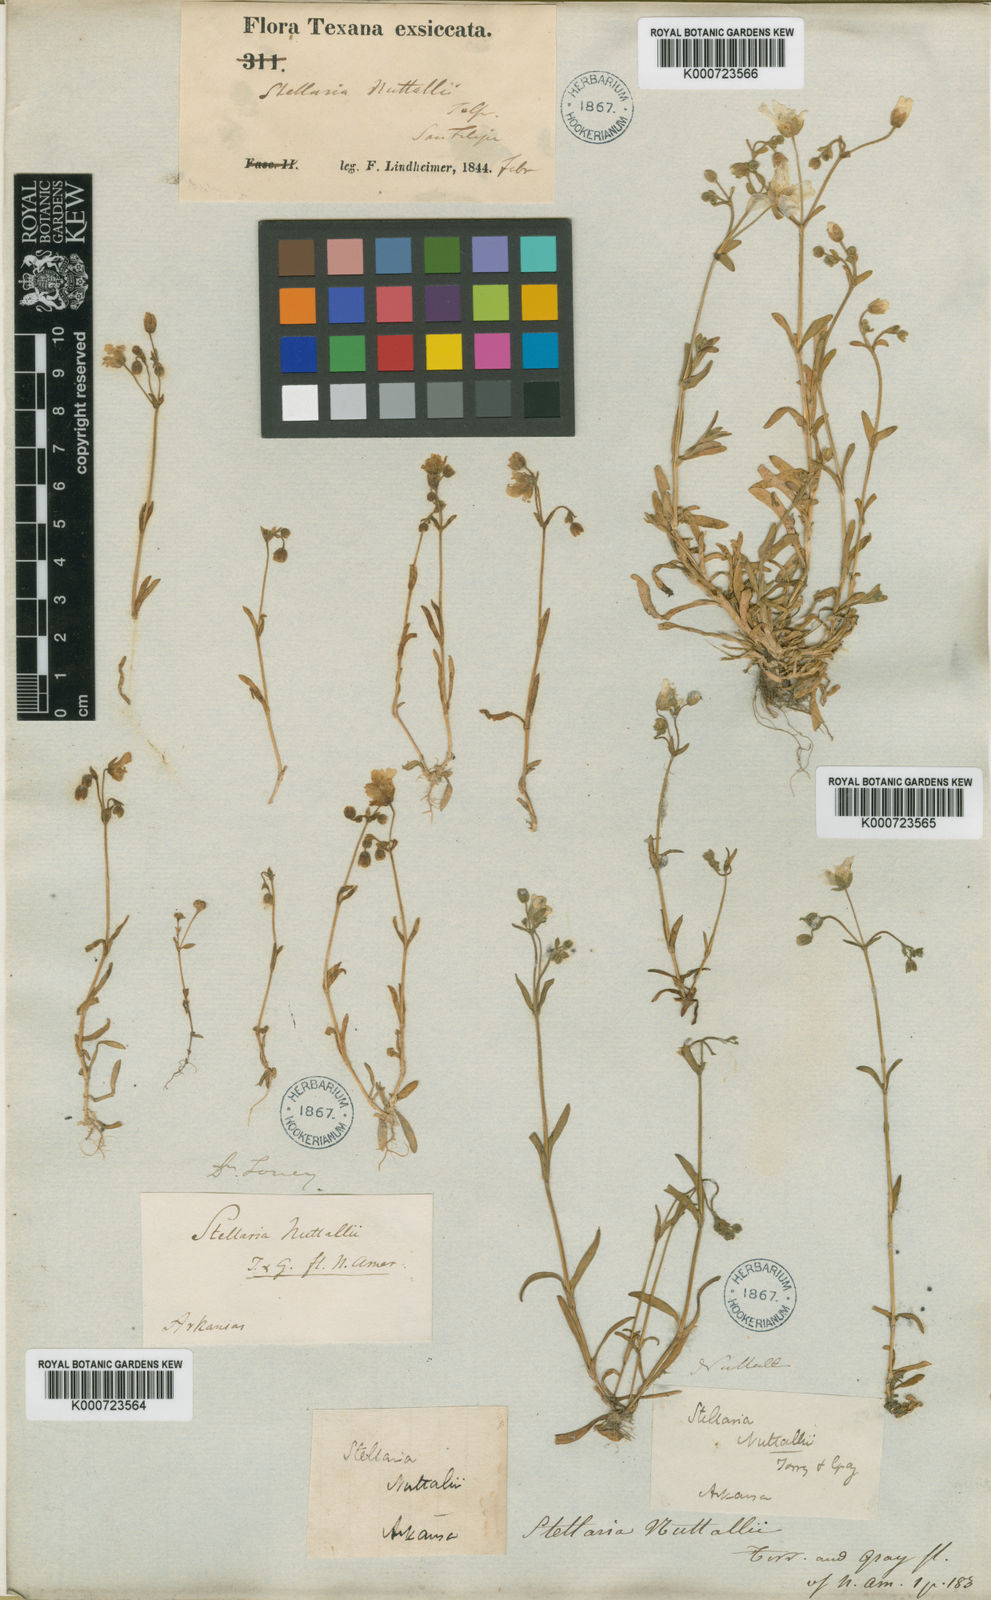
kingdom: Plantae
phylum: Tracheophyta
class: Magnoliopsida
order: Caryophyllales
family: Caryophyllaceae
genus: Geocarpon
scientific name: Geocarpon nuttallii
